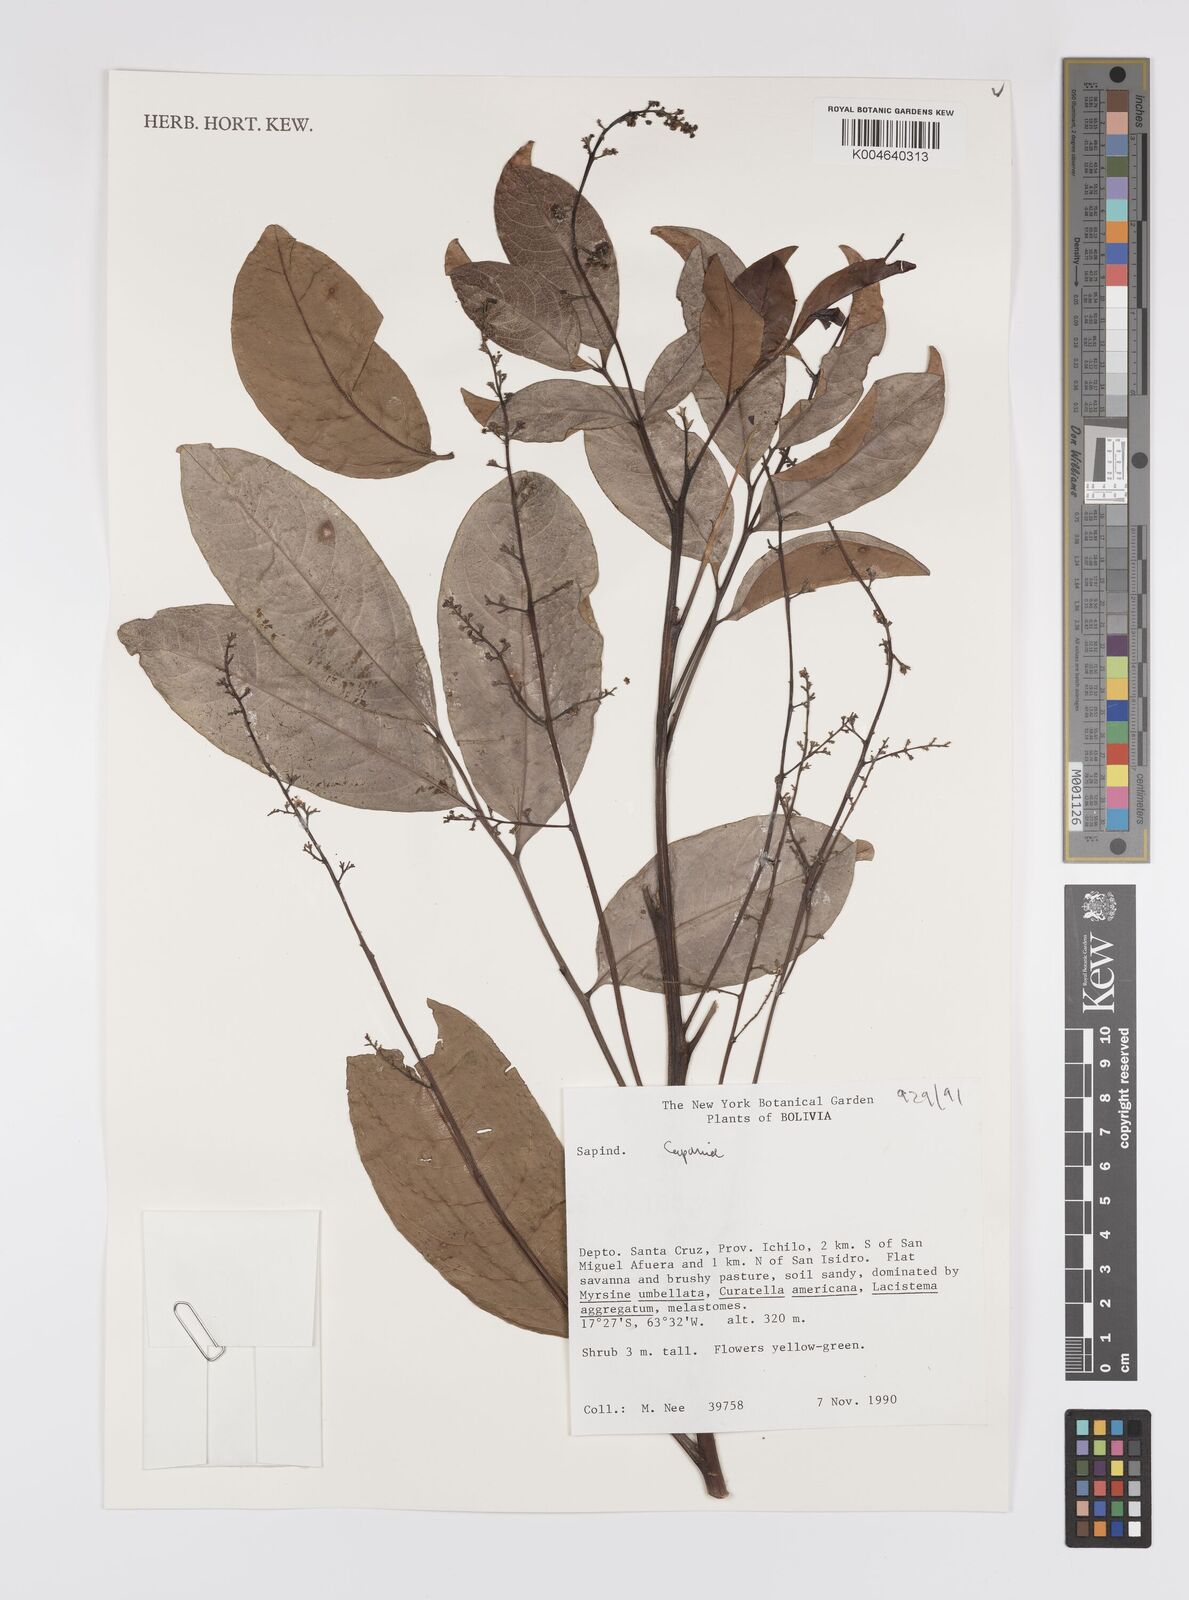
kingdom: Plantae
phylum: Tracheophyta
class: Magnoliopsida
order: Sapindales
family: Sapindaceae
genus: Cupania
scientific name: Cupania
